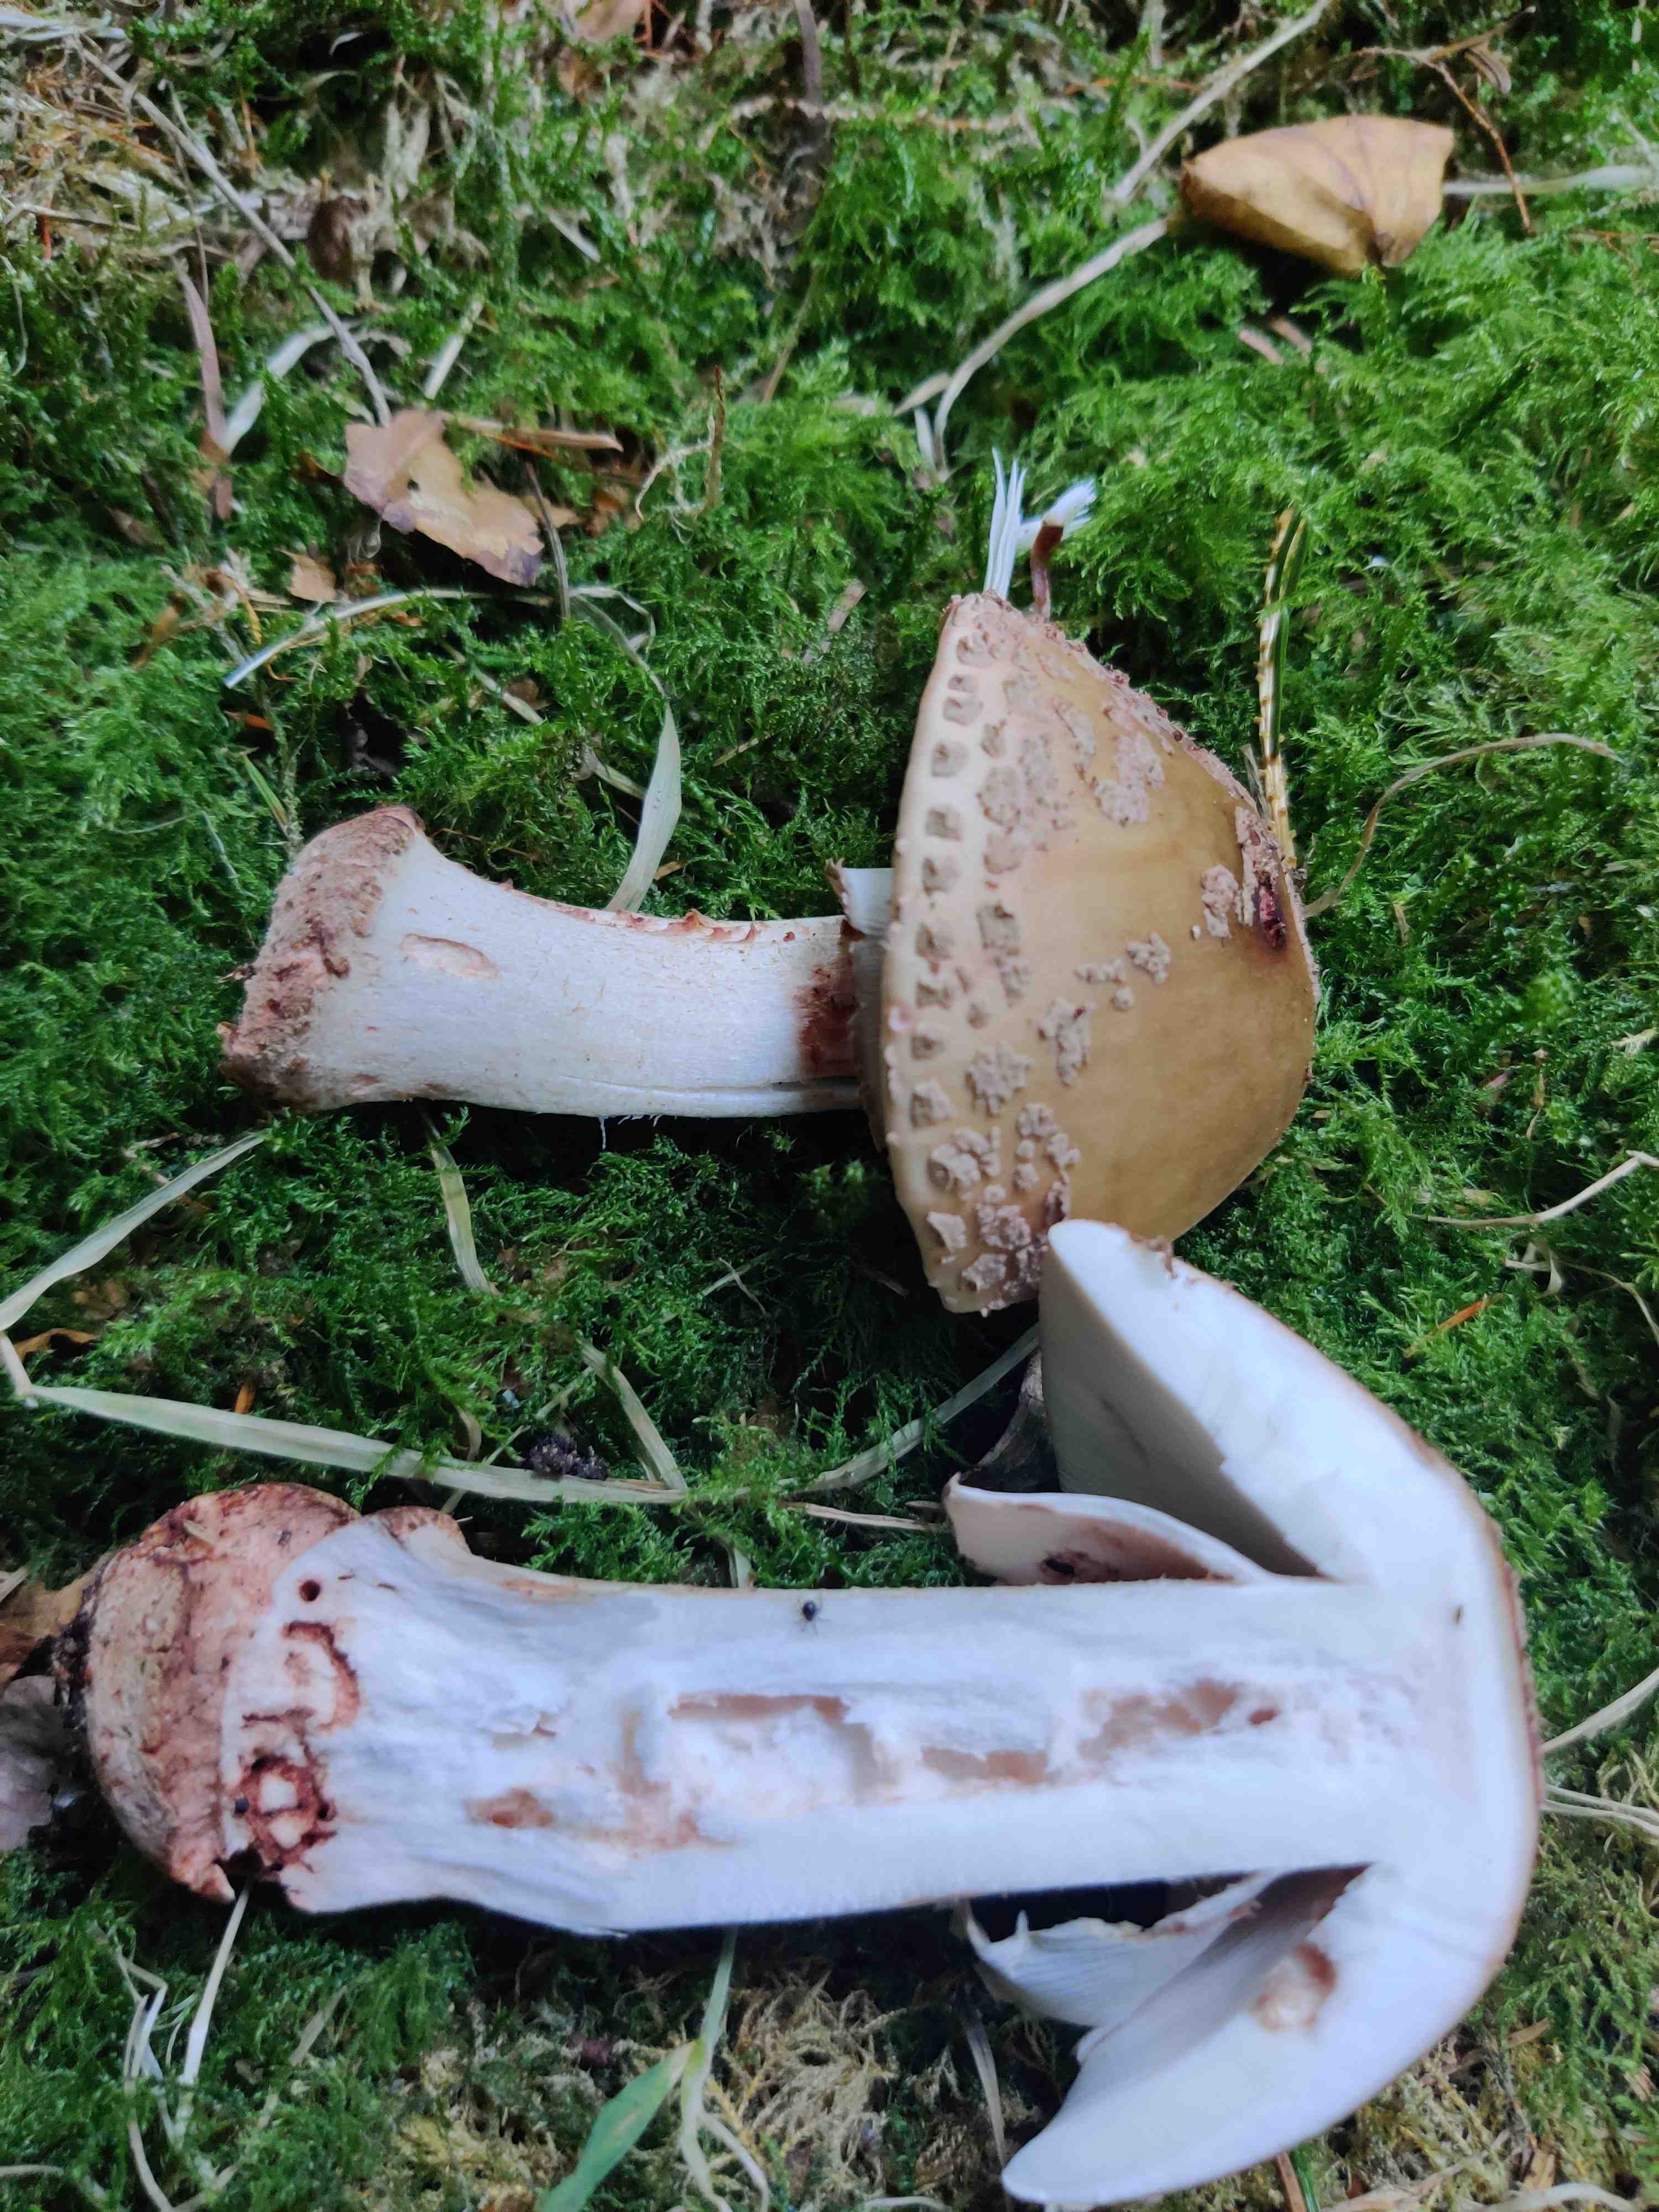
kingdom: Fungi
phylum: Basidiomycota
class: Agaricomycetes
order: Agaricales
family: Amanitaceae
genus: Amanita
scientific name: Amanita rubescens
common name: rødmende fluesvamp
